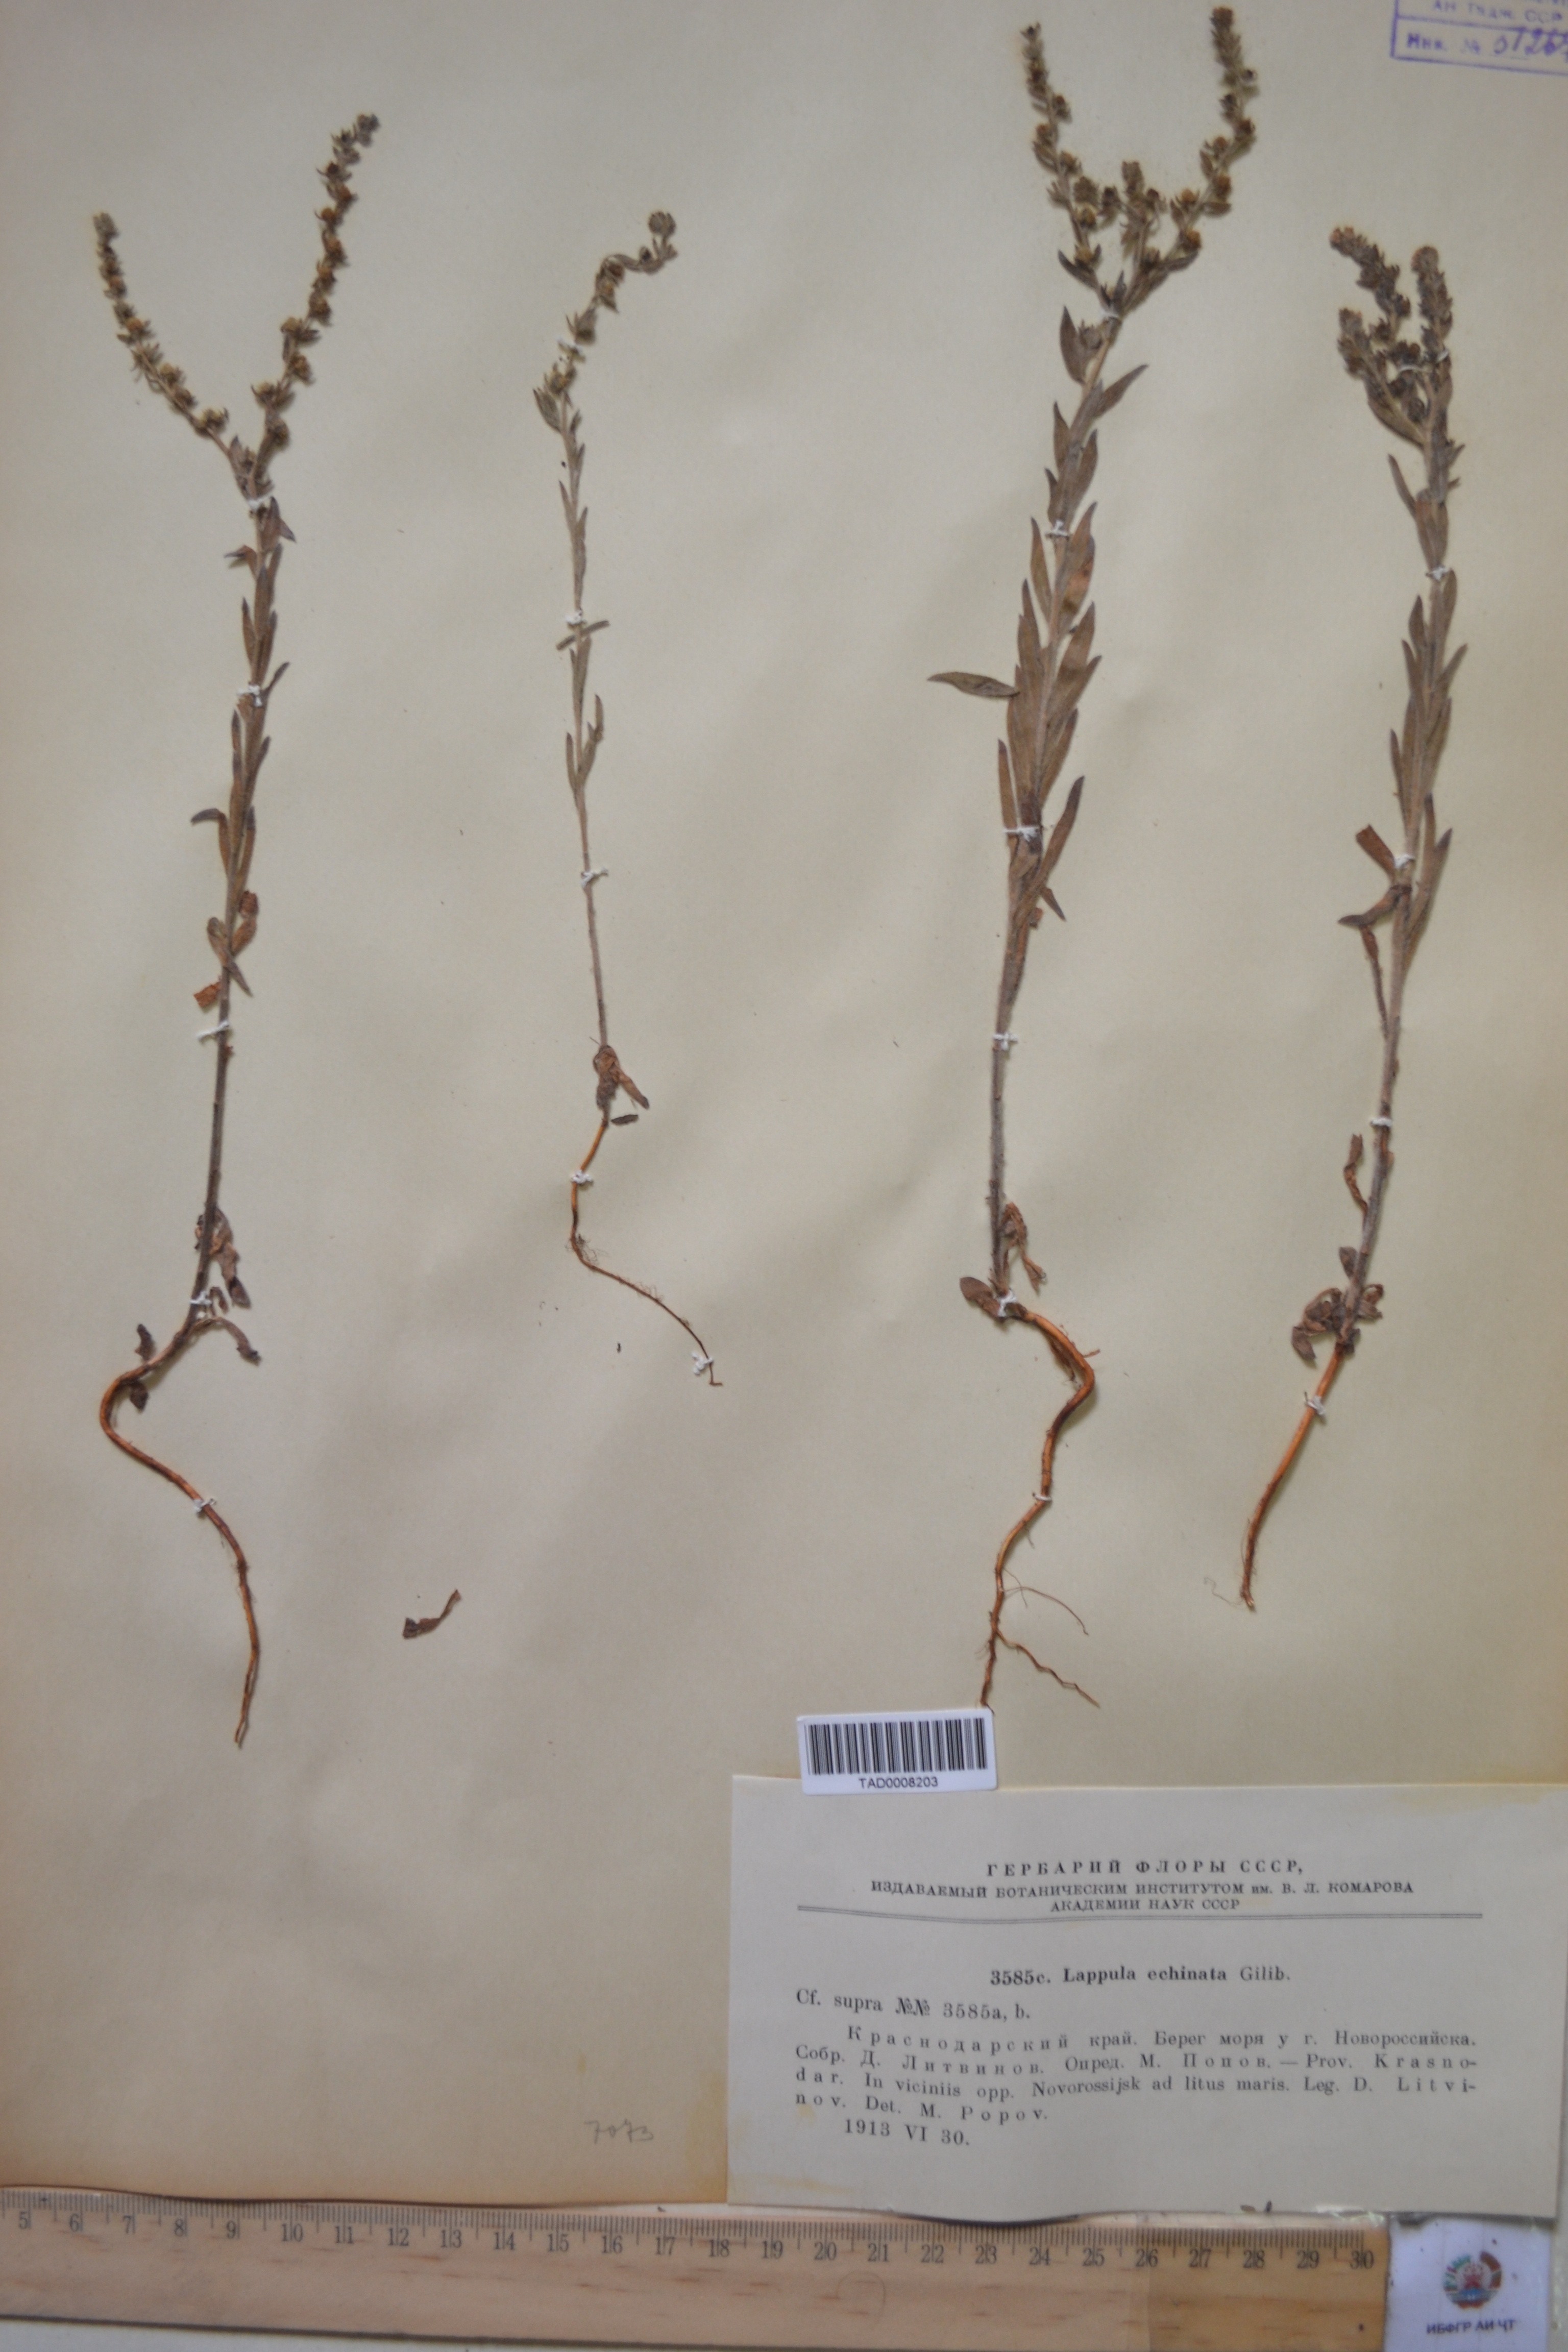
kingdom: Plantae
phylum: Tracheophyta
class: Magnoliopsida
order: Boraginales
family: Boraginaceae
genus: Lappula
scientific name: Lappula squarrosa
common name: European stickseed
